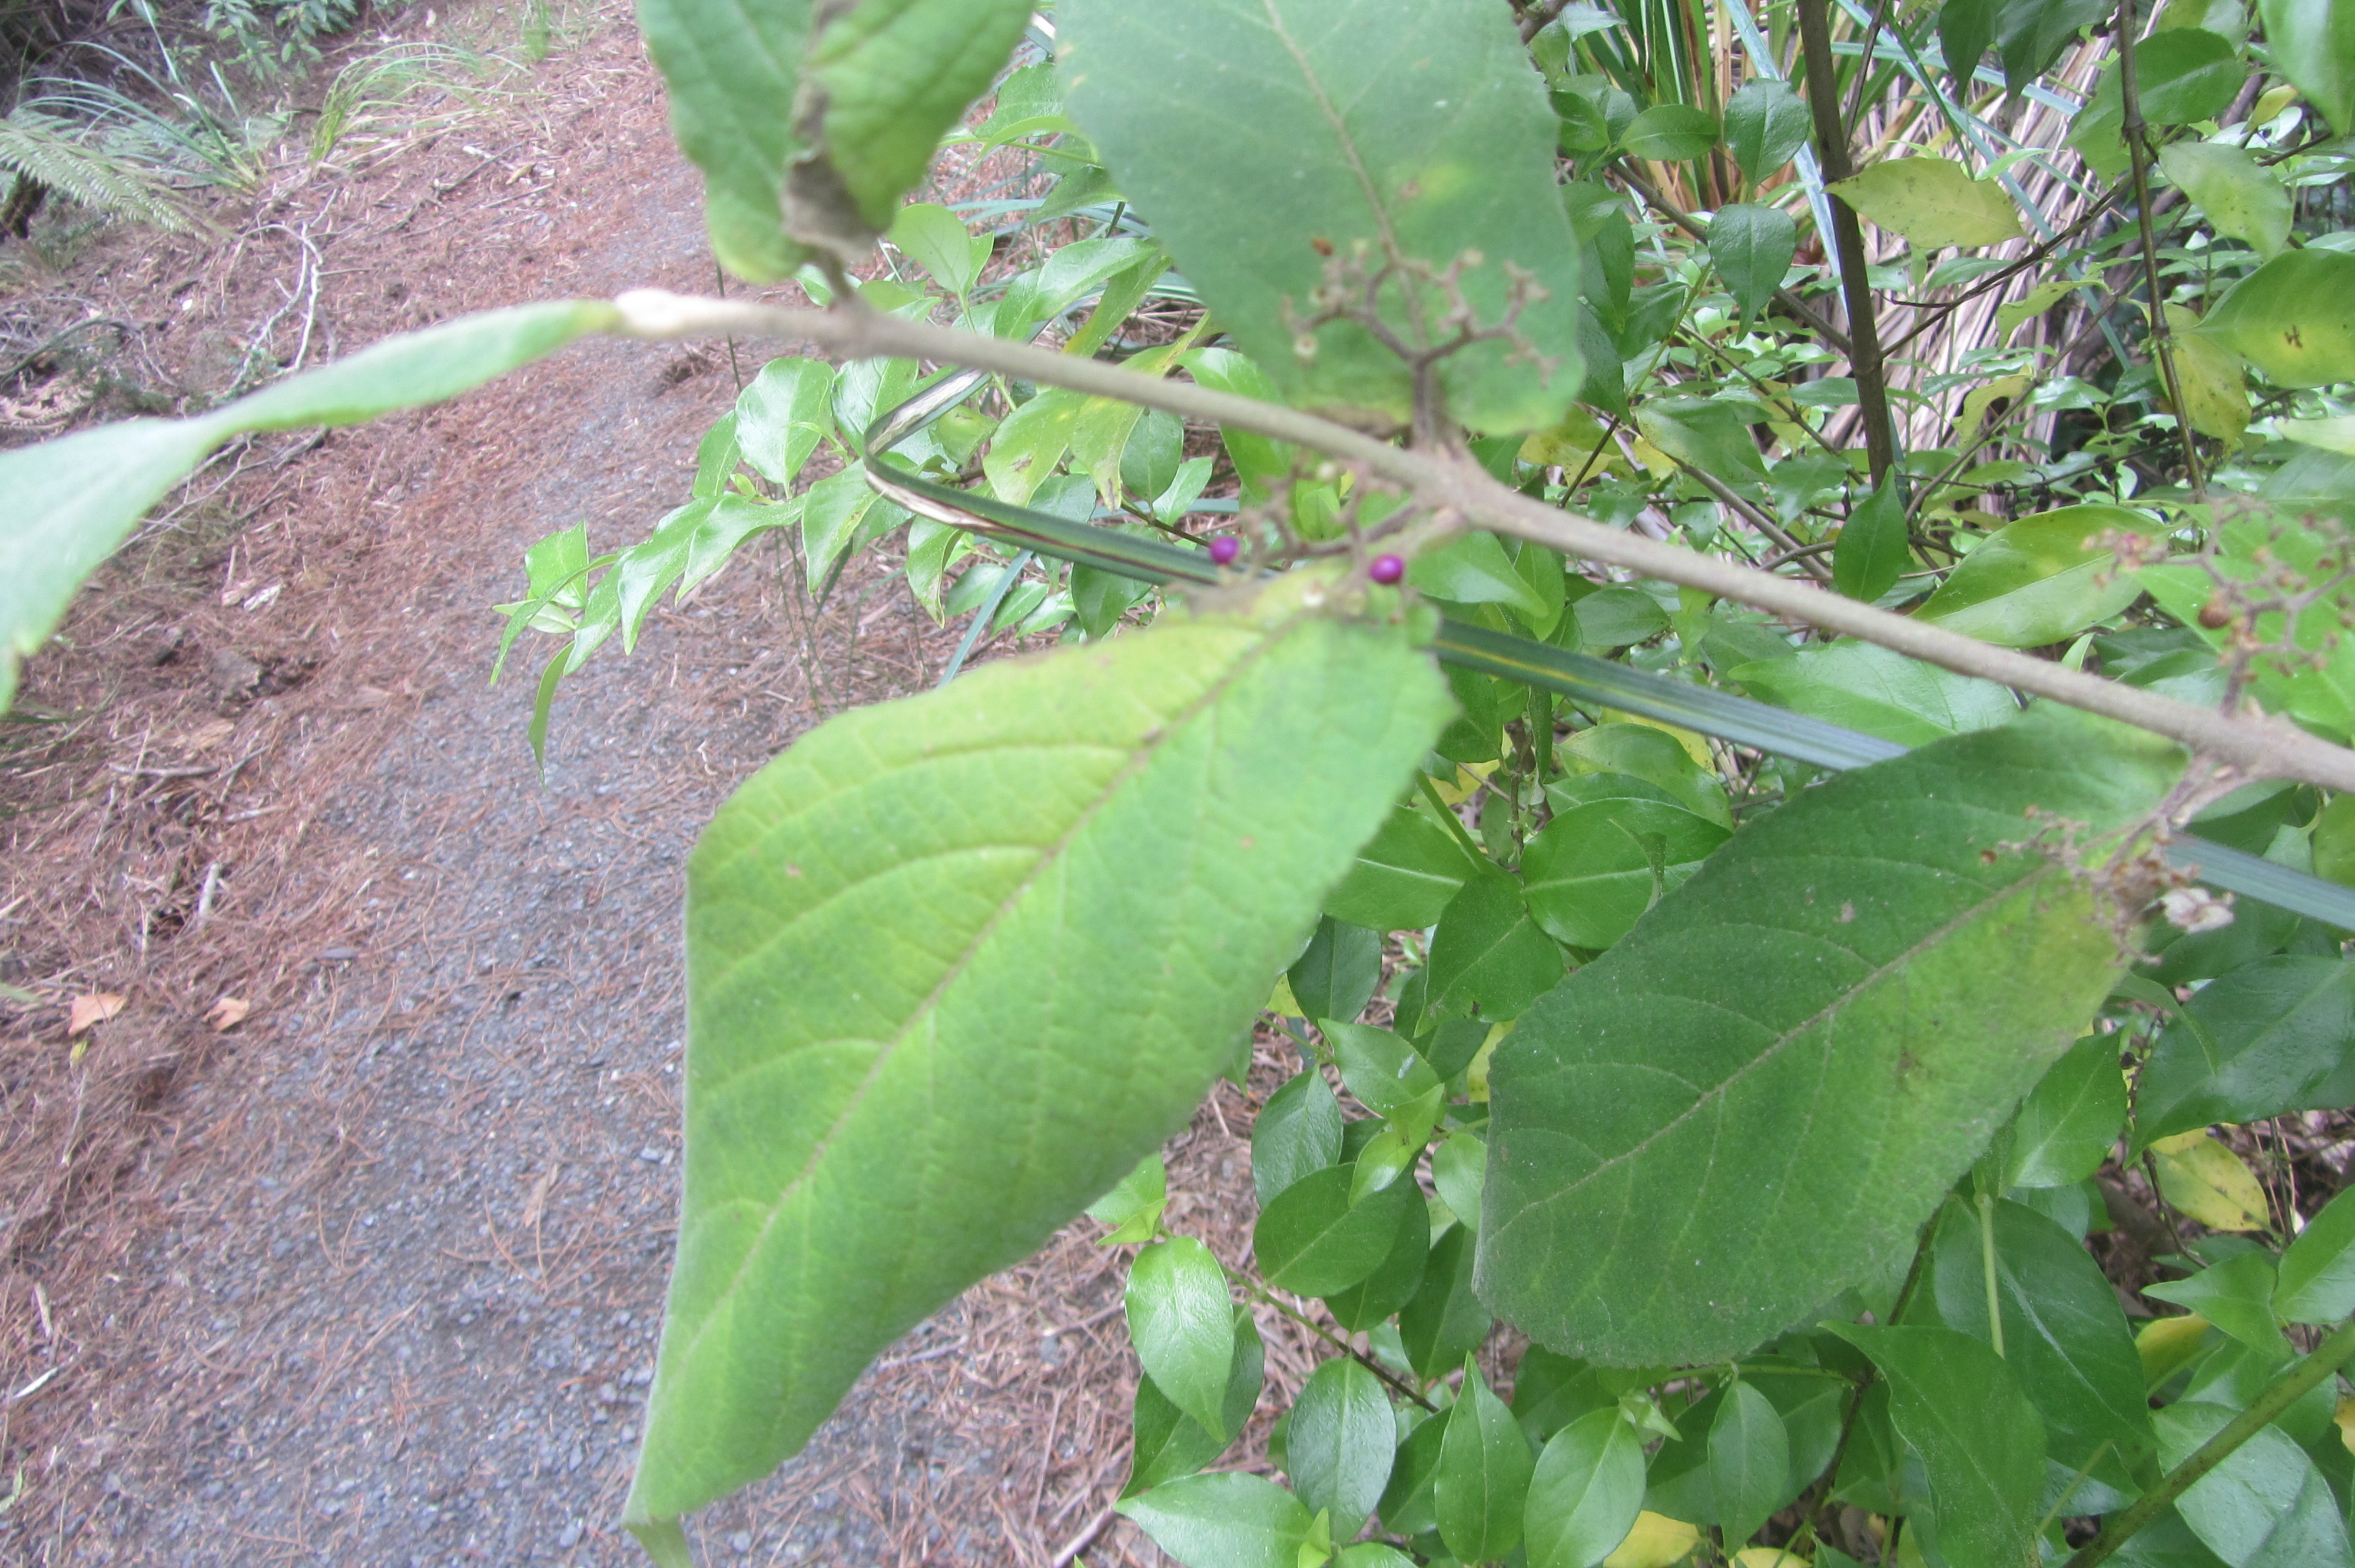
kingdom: Plantae
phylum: Tracheophyta
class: Magnoliopsida
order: Lamiales
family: Lamiaceae
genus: Callicarpa
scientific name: Callicarpa rubella
